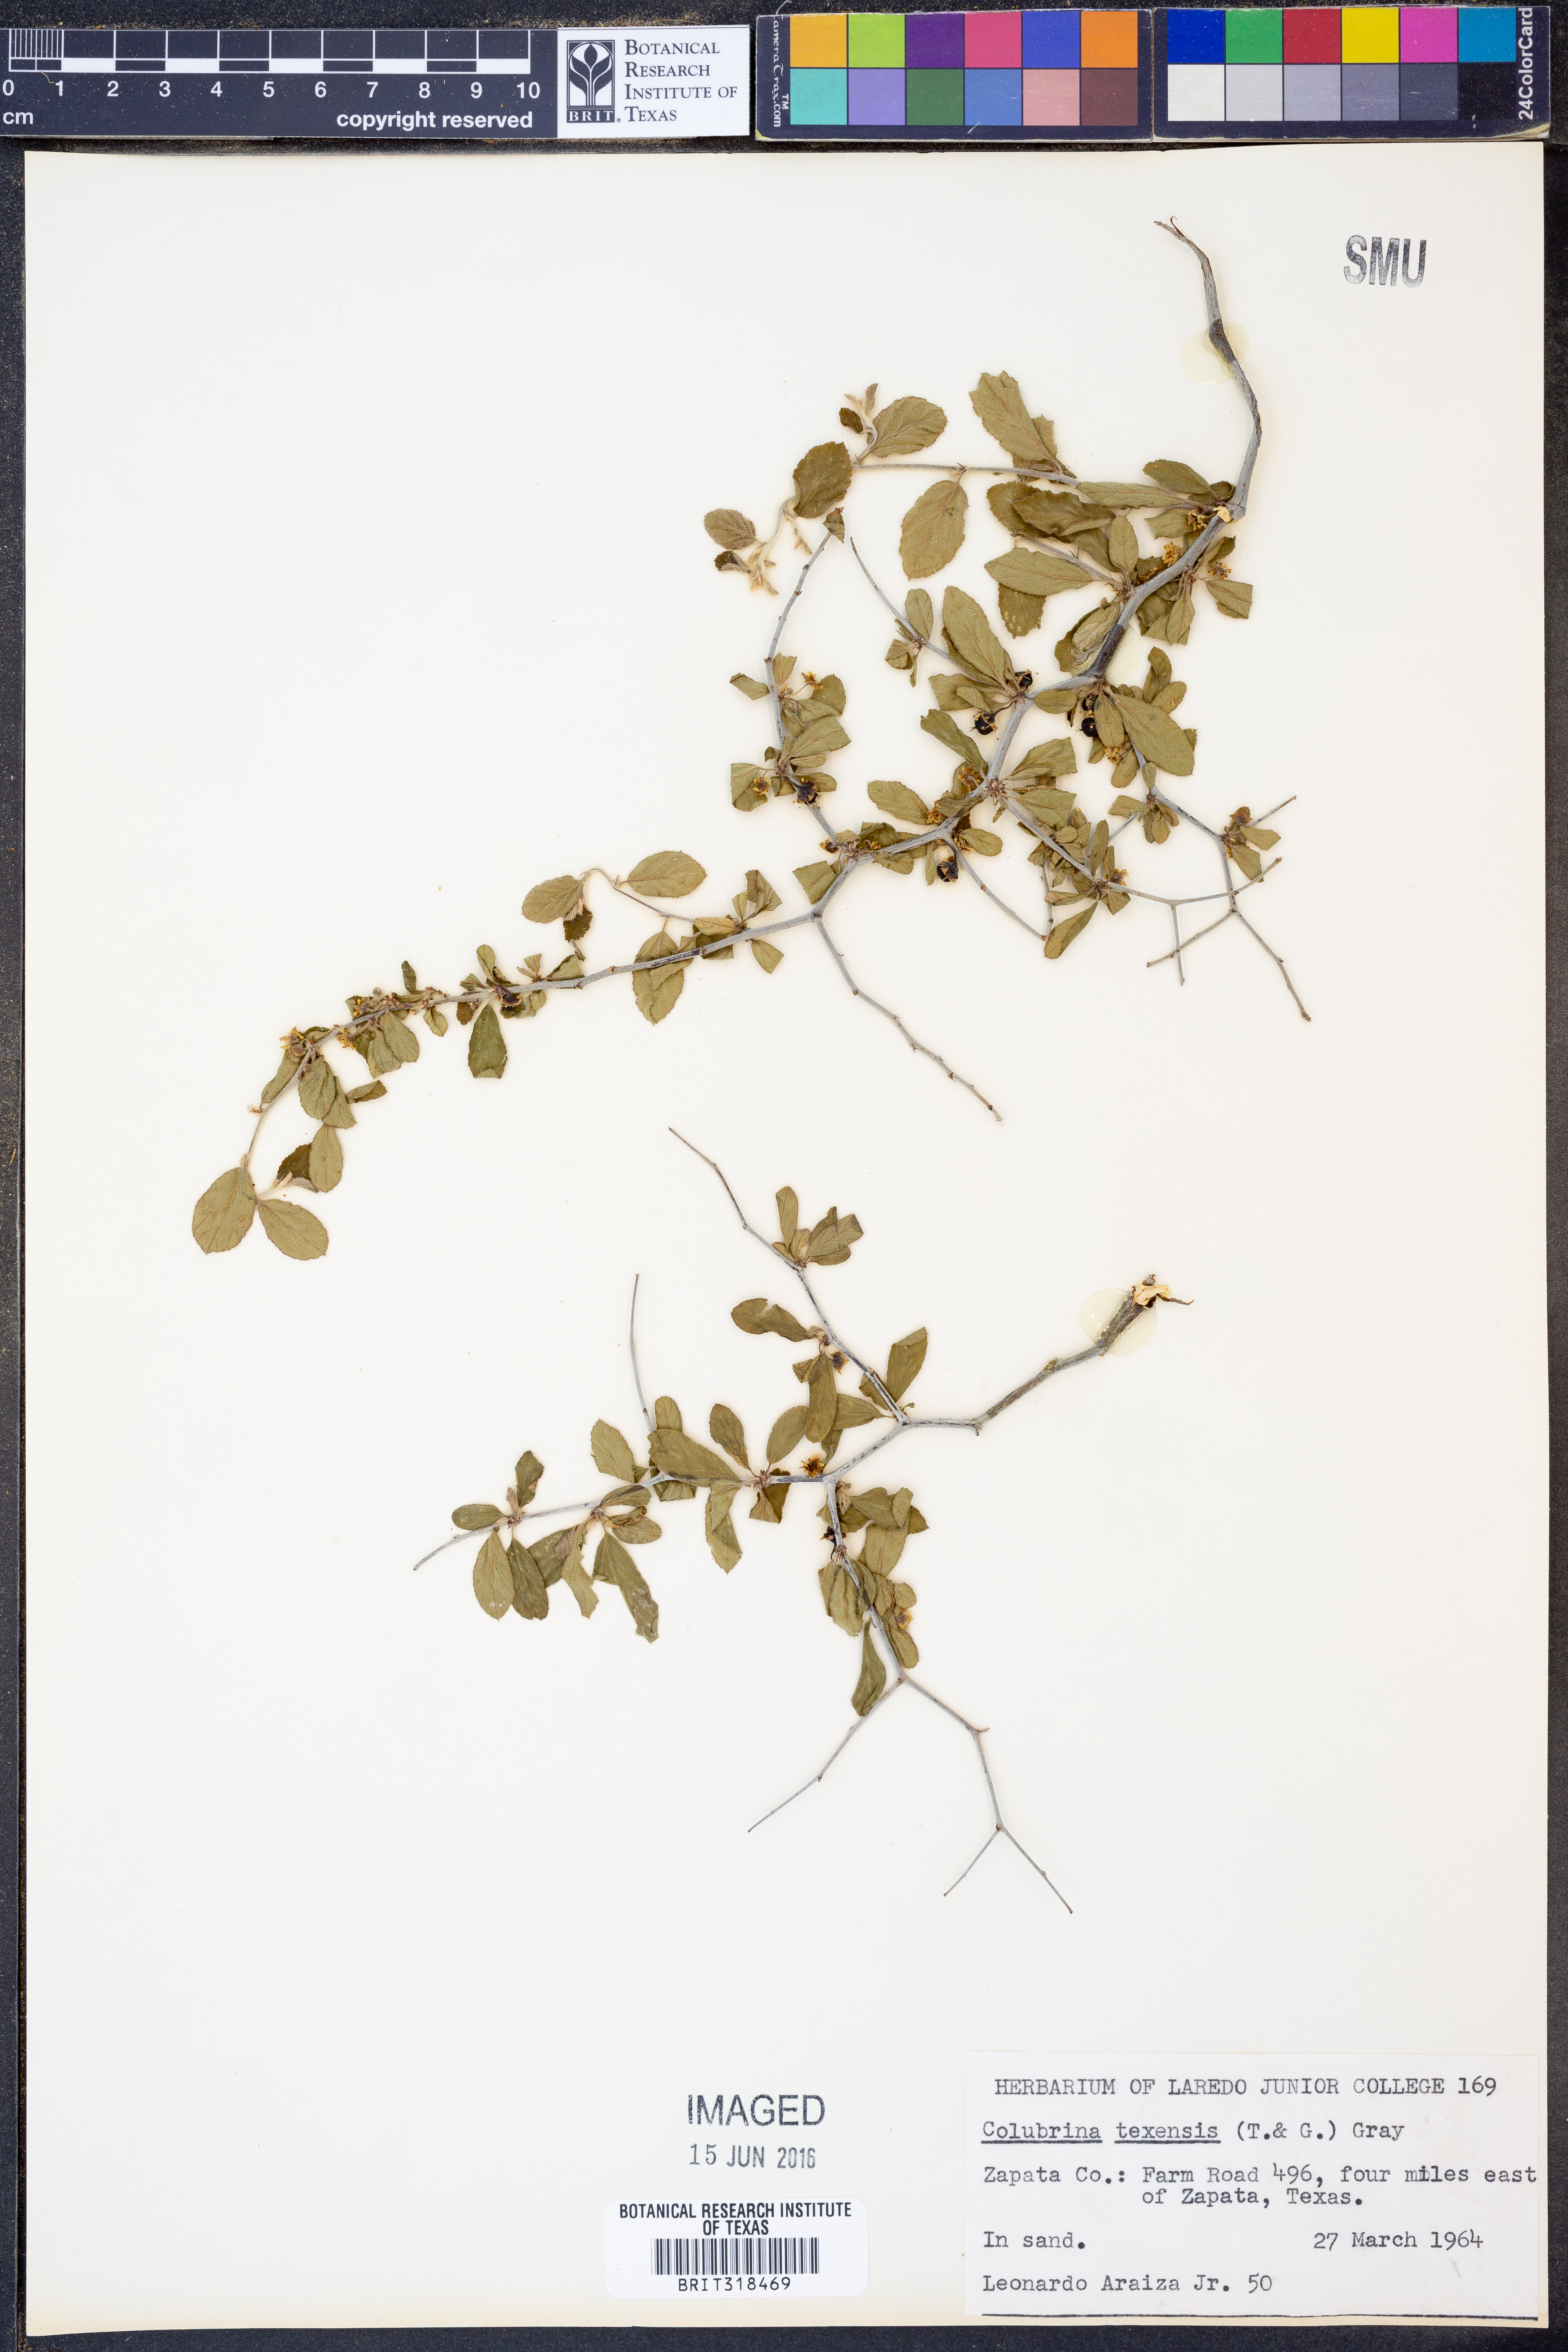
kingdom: Plantae
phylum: Tracheophyta
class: Magnoliopsida
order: Rosales
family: Rhamnaceae
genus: Colubrina
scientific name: Colubrina texensis
